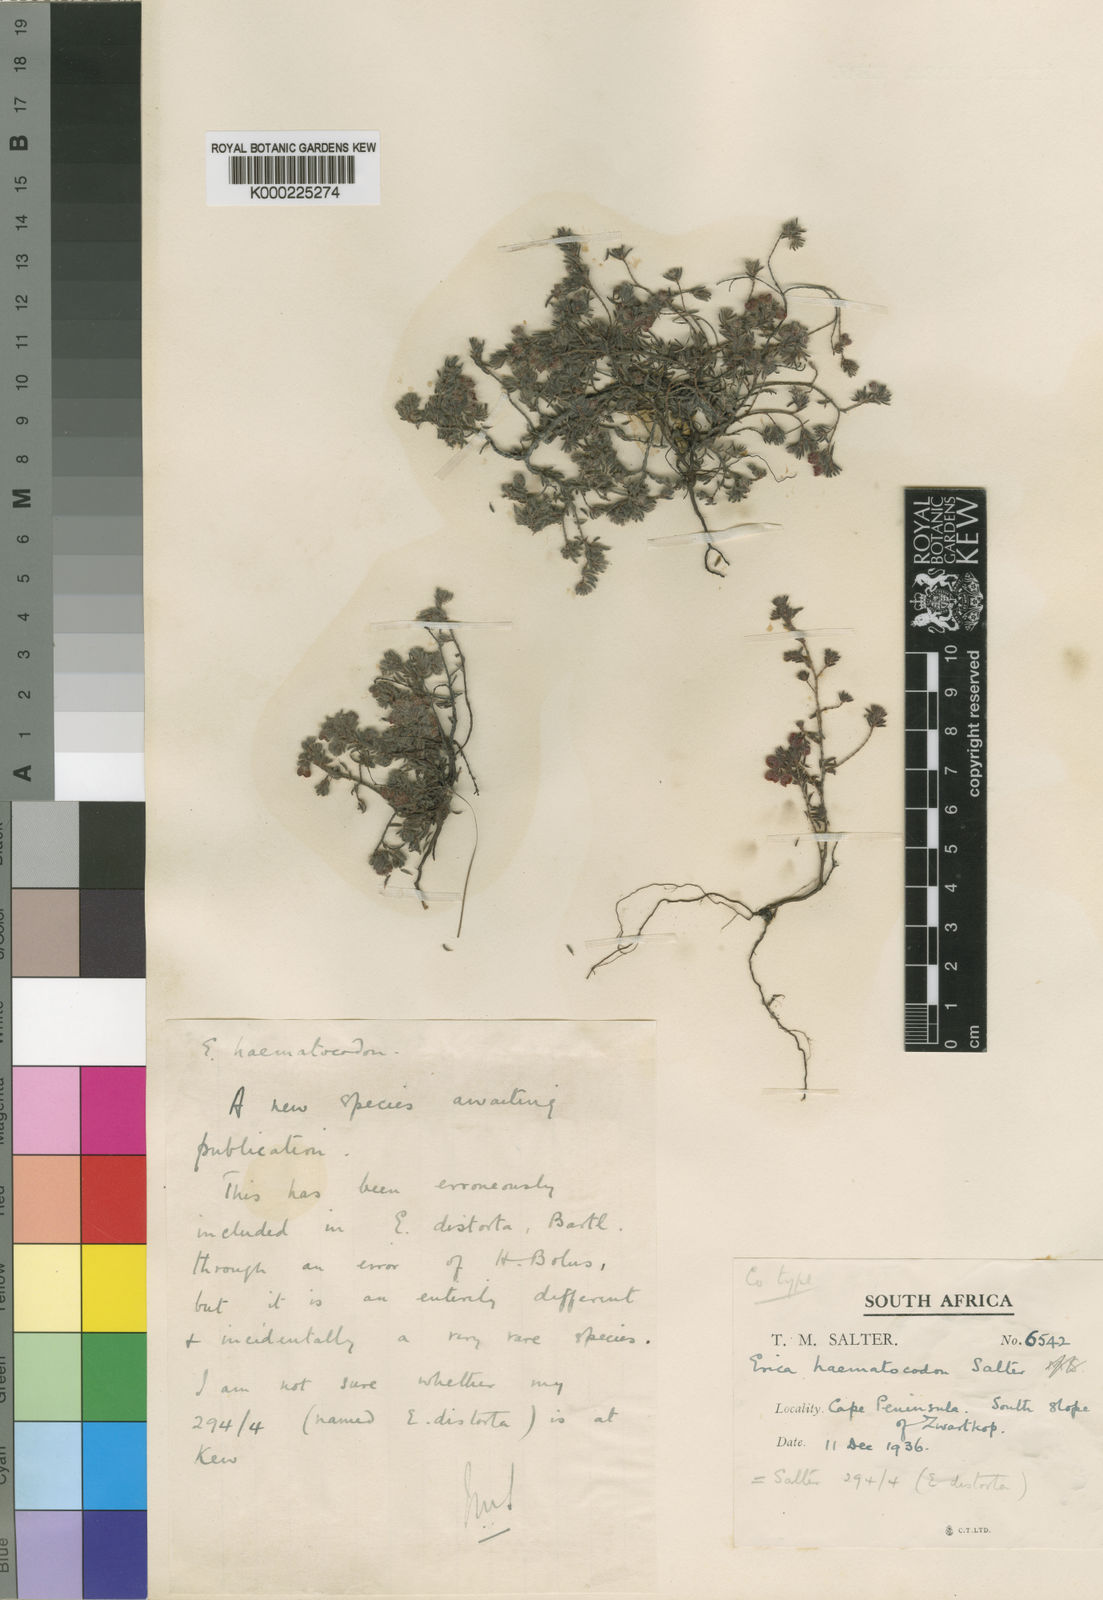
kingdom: Plantae
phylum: Tracheophyta
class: Magnoliopsida
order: Ericales
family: Ericaceae
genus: Erica
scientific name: Erica haematocodon
